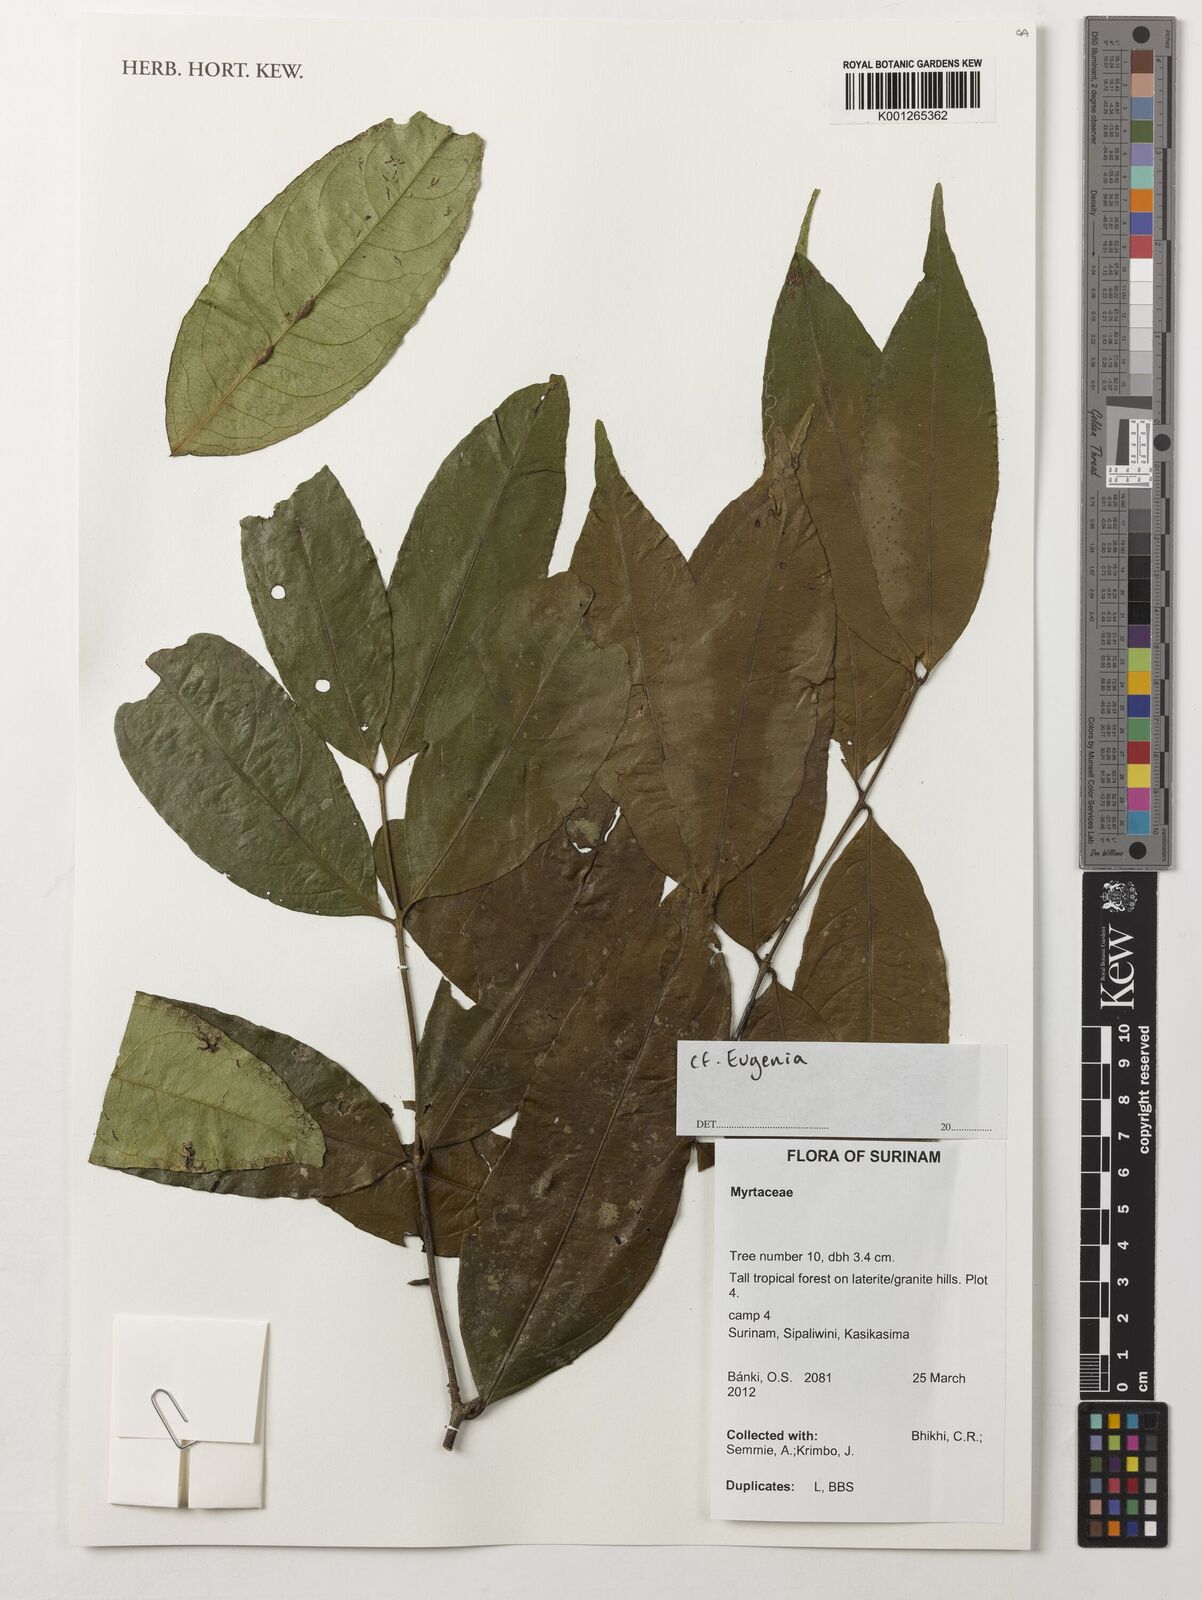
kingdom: Plantae
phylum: Tracheophyta
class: Magnoliopsida
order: Myrtales
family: Myrtaceae
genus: Eugenia
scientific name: Eugenia
